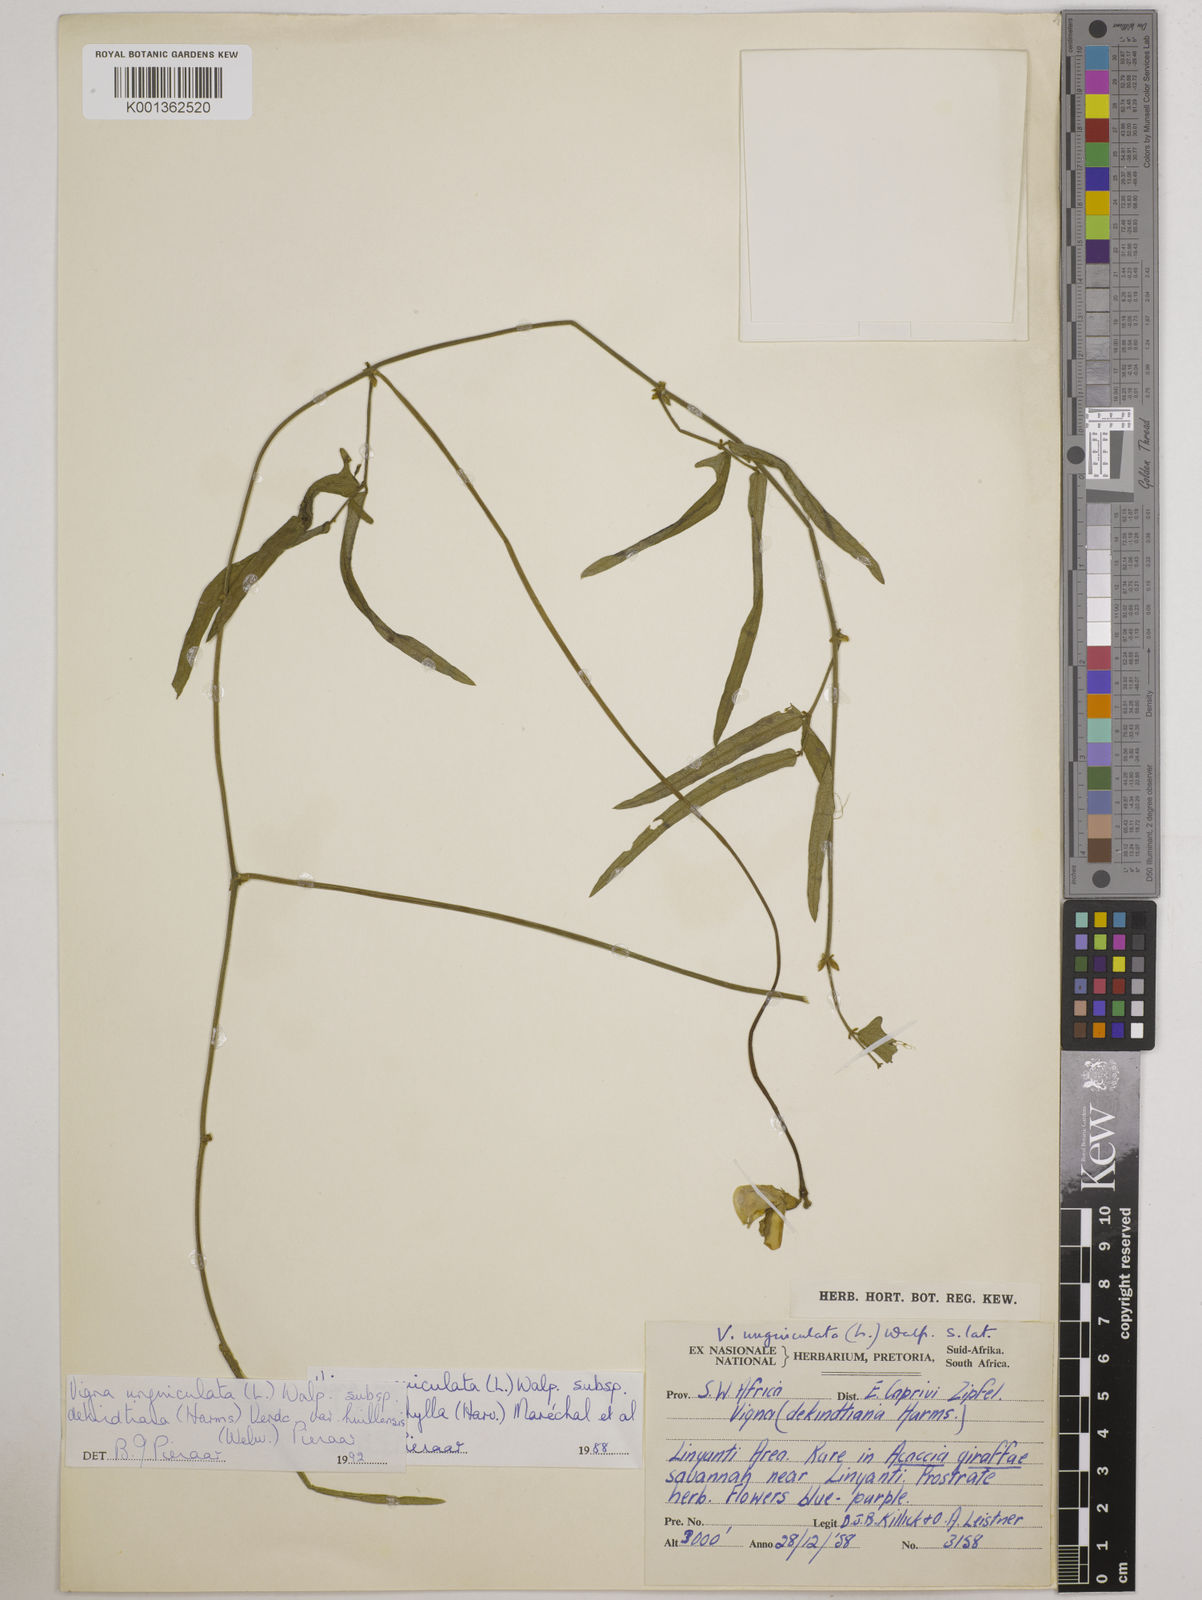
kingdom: Plantae
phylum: Tracheophyta
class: Magnoliopsida
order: Fabales
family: Fabaceae
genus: Vigna
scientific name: Vigna unguiculata
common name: Cowpea
